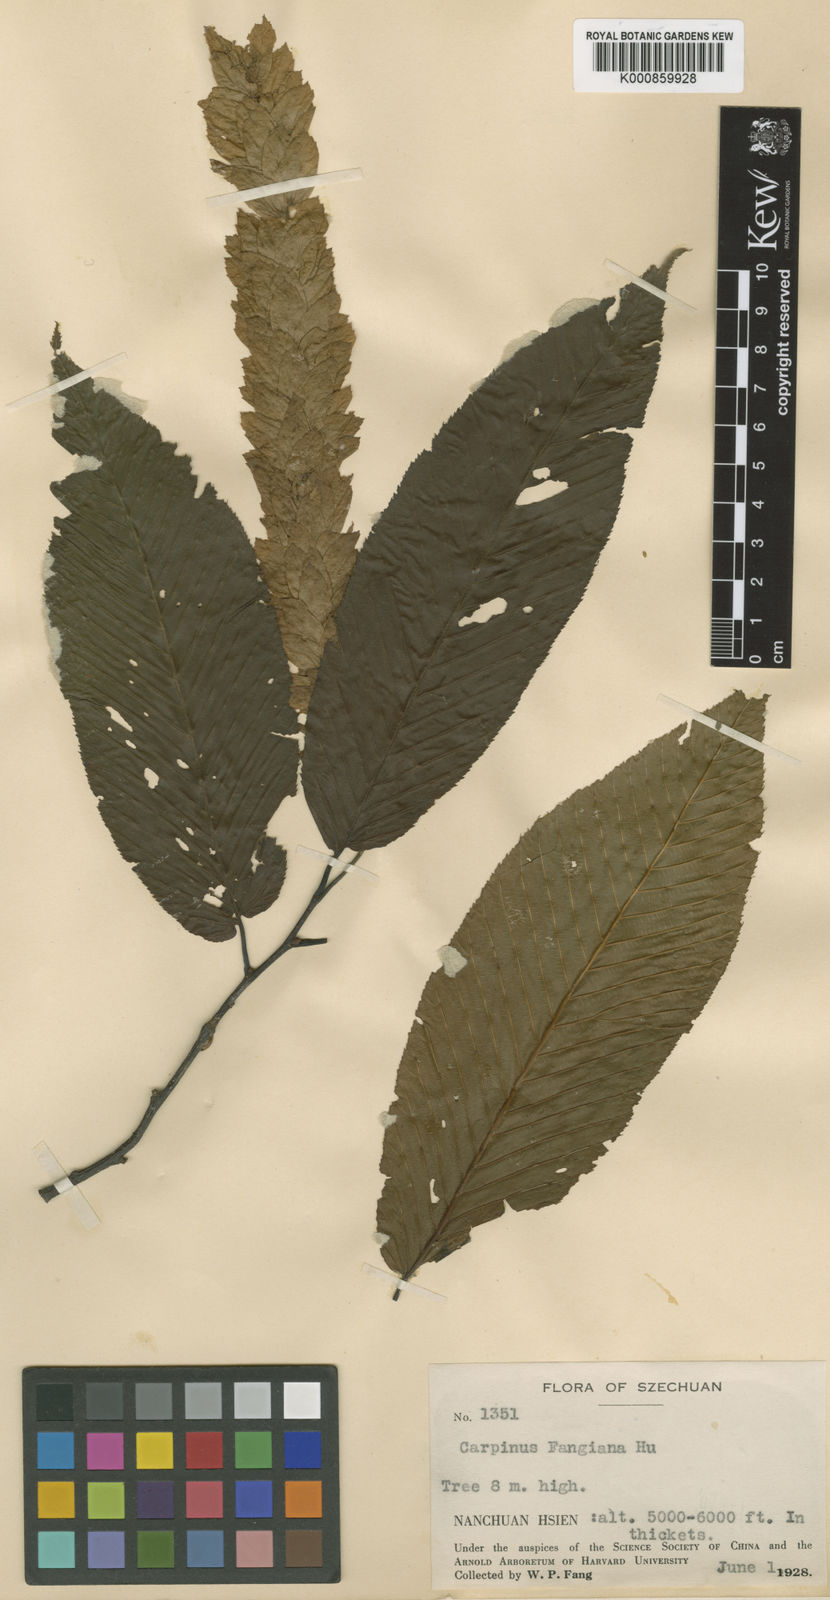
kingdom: Plantae
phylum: Tracheophyta
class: Magnoliopsida
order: Fagales
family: Betulaceae
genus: Carpinus
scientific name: Carpinus fangiana
